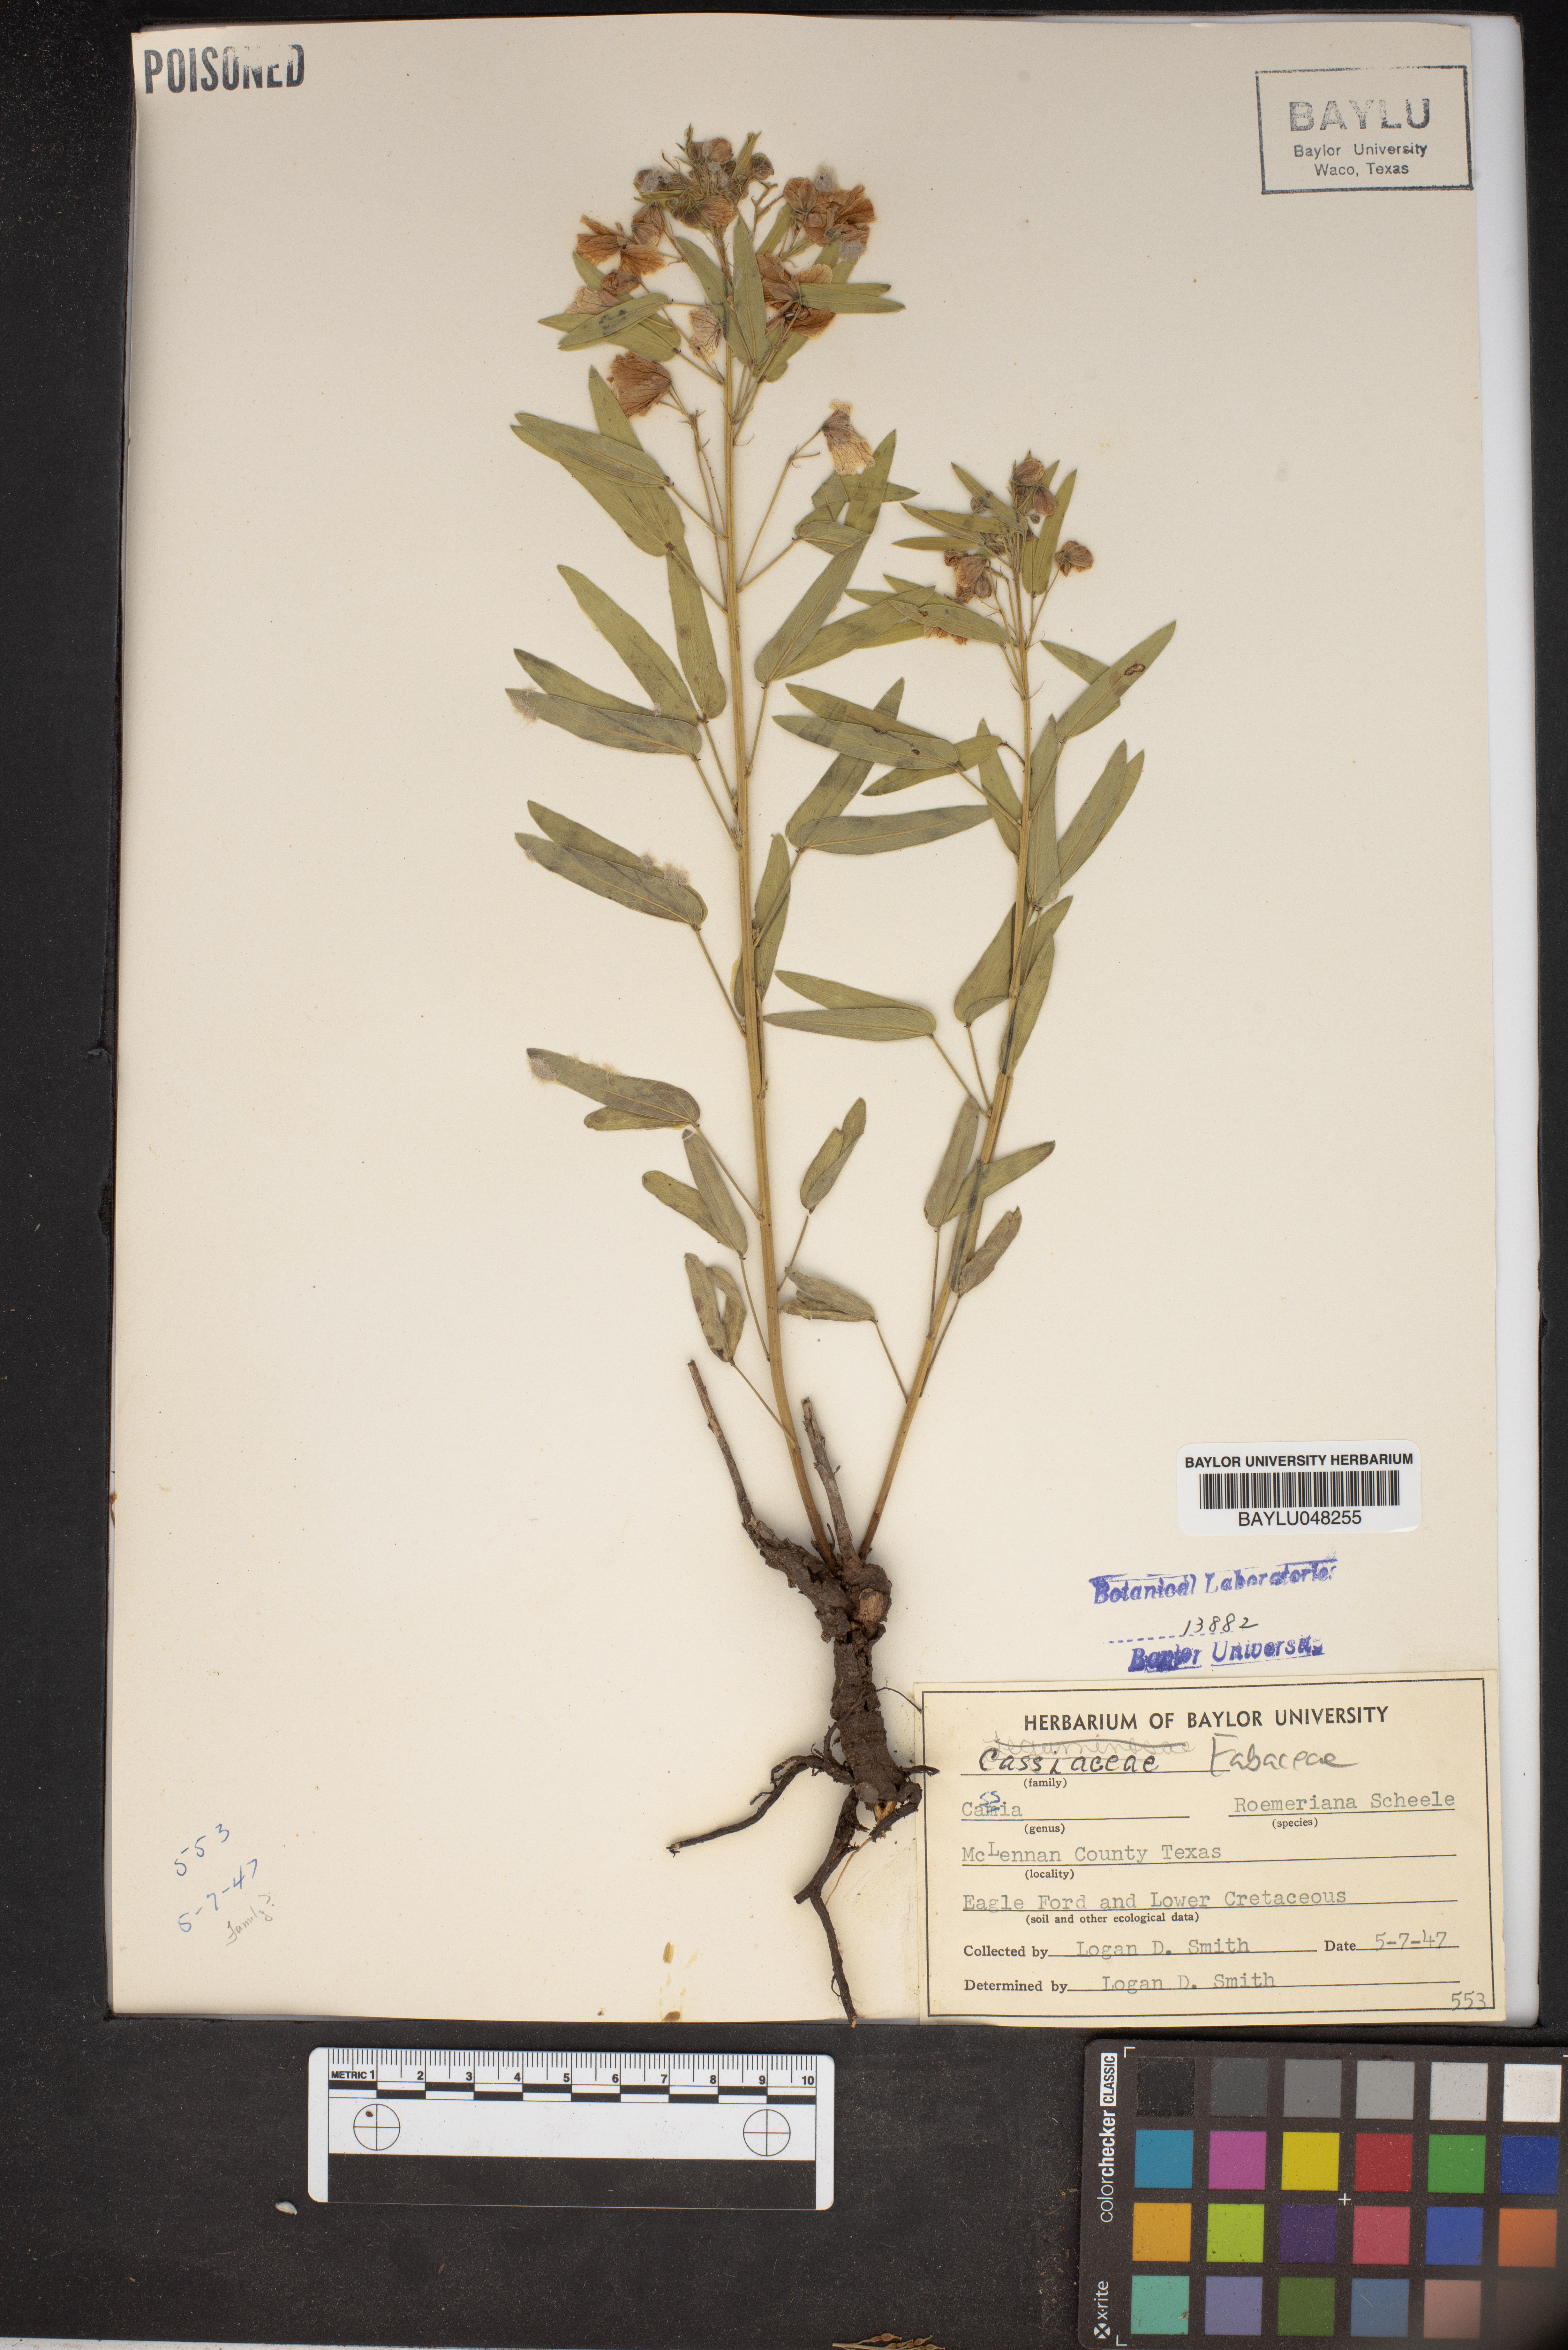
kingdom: Plantae
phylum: Tracheophyta
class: Magnoliopsida
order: Fabales
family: Fabaceae
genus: Senna
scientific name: Senna roemeriana
